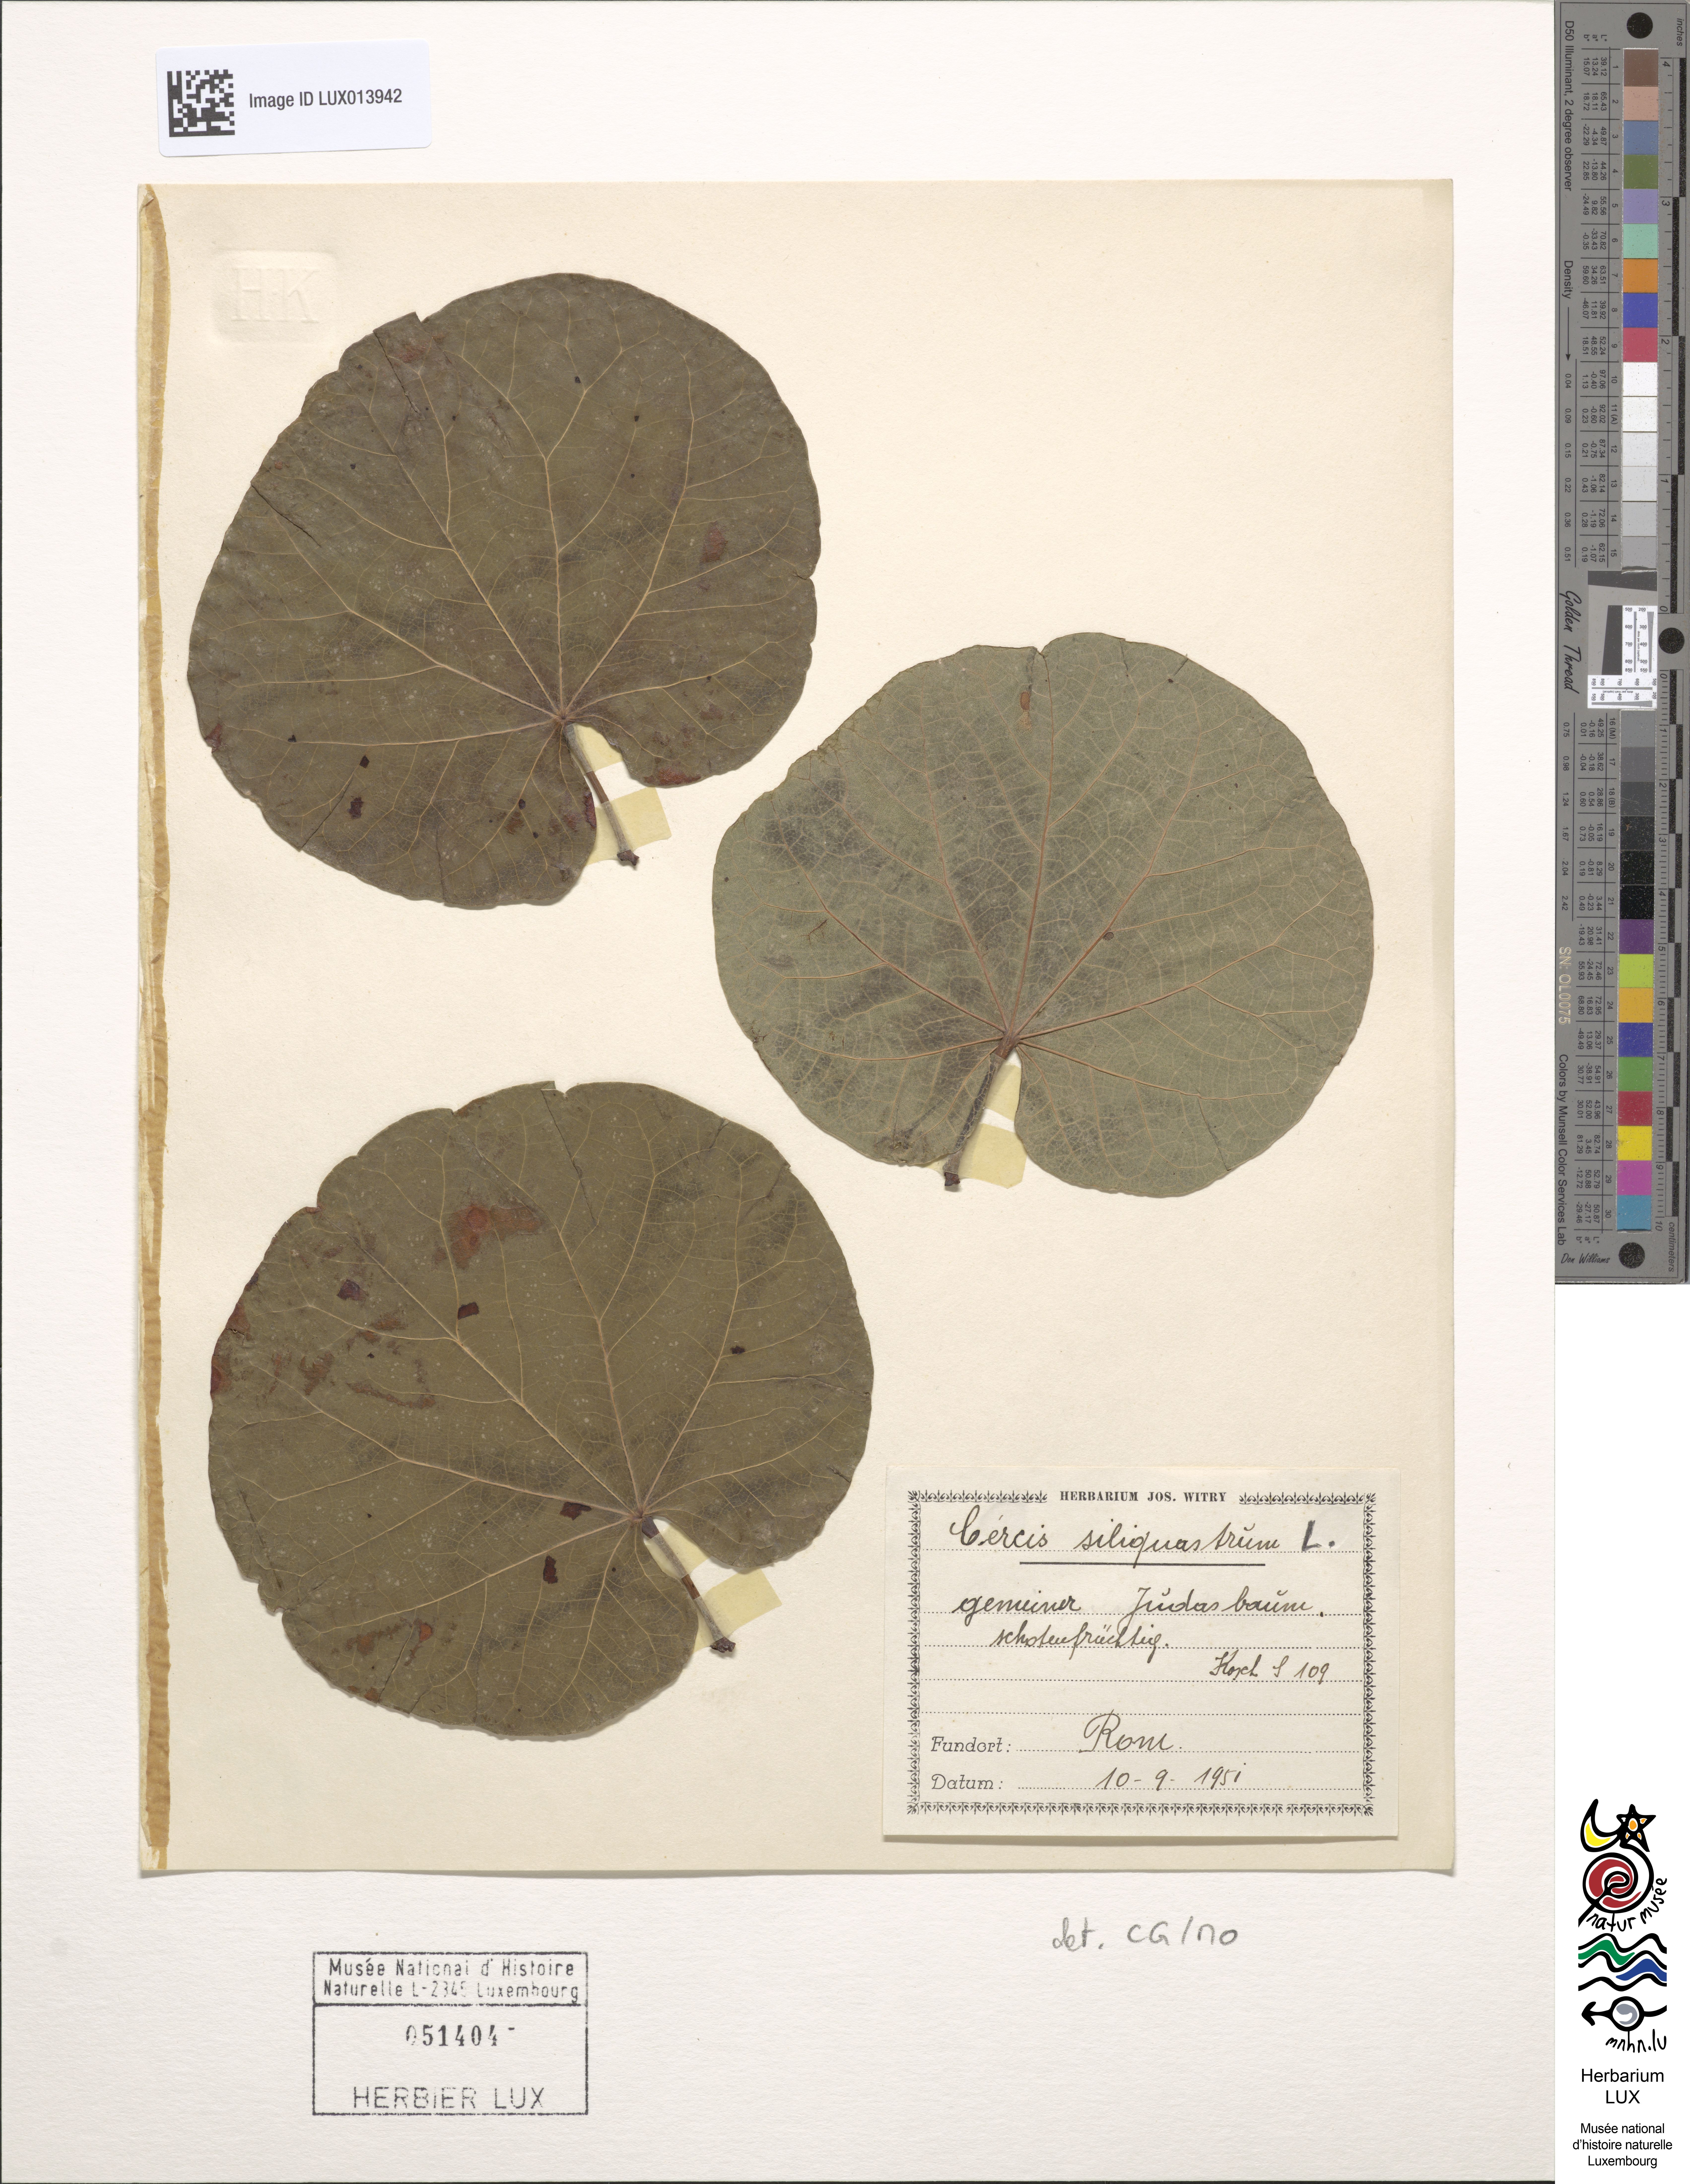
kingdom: Plantae
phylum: Tracheophyta
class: Magnoliopsida
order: Fabales
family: Fabaceae
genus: Cercis
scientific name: Cercis siliquastrum
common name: Judas tree
